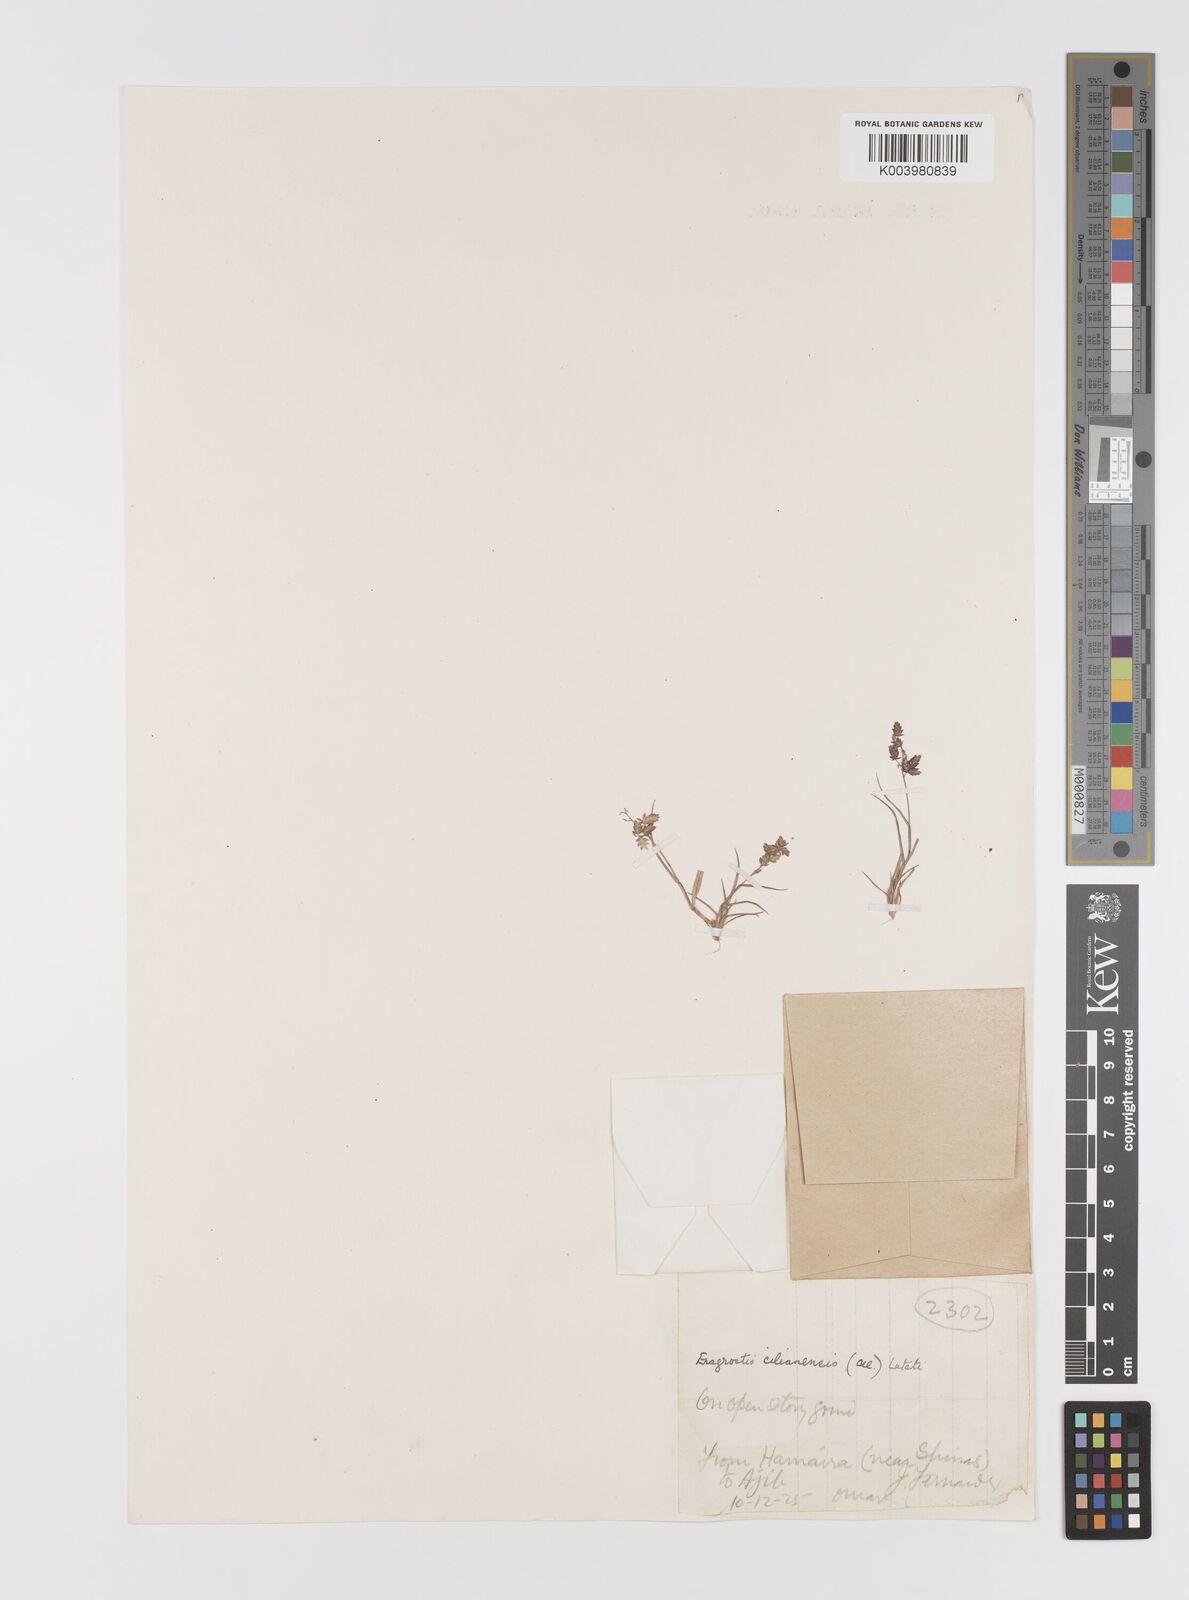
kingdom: Plantae
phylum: Tracheophyta
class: Liliopsida
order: Poales
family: Poaceae
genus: Eragrostis
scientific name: Eragrostis cilianensis
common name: Stinkgrass
